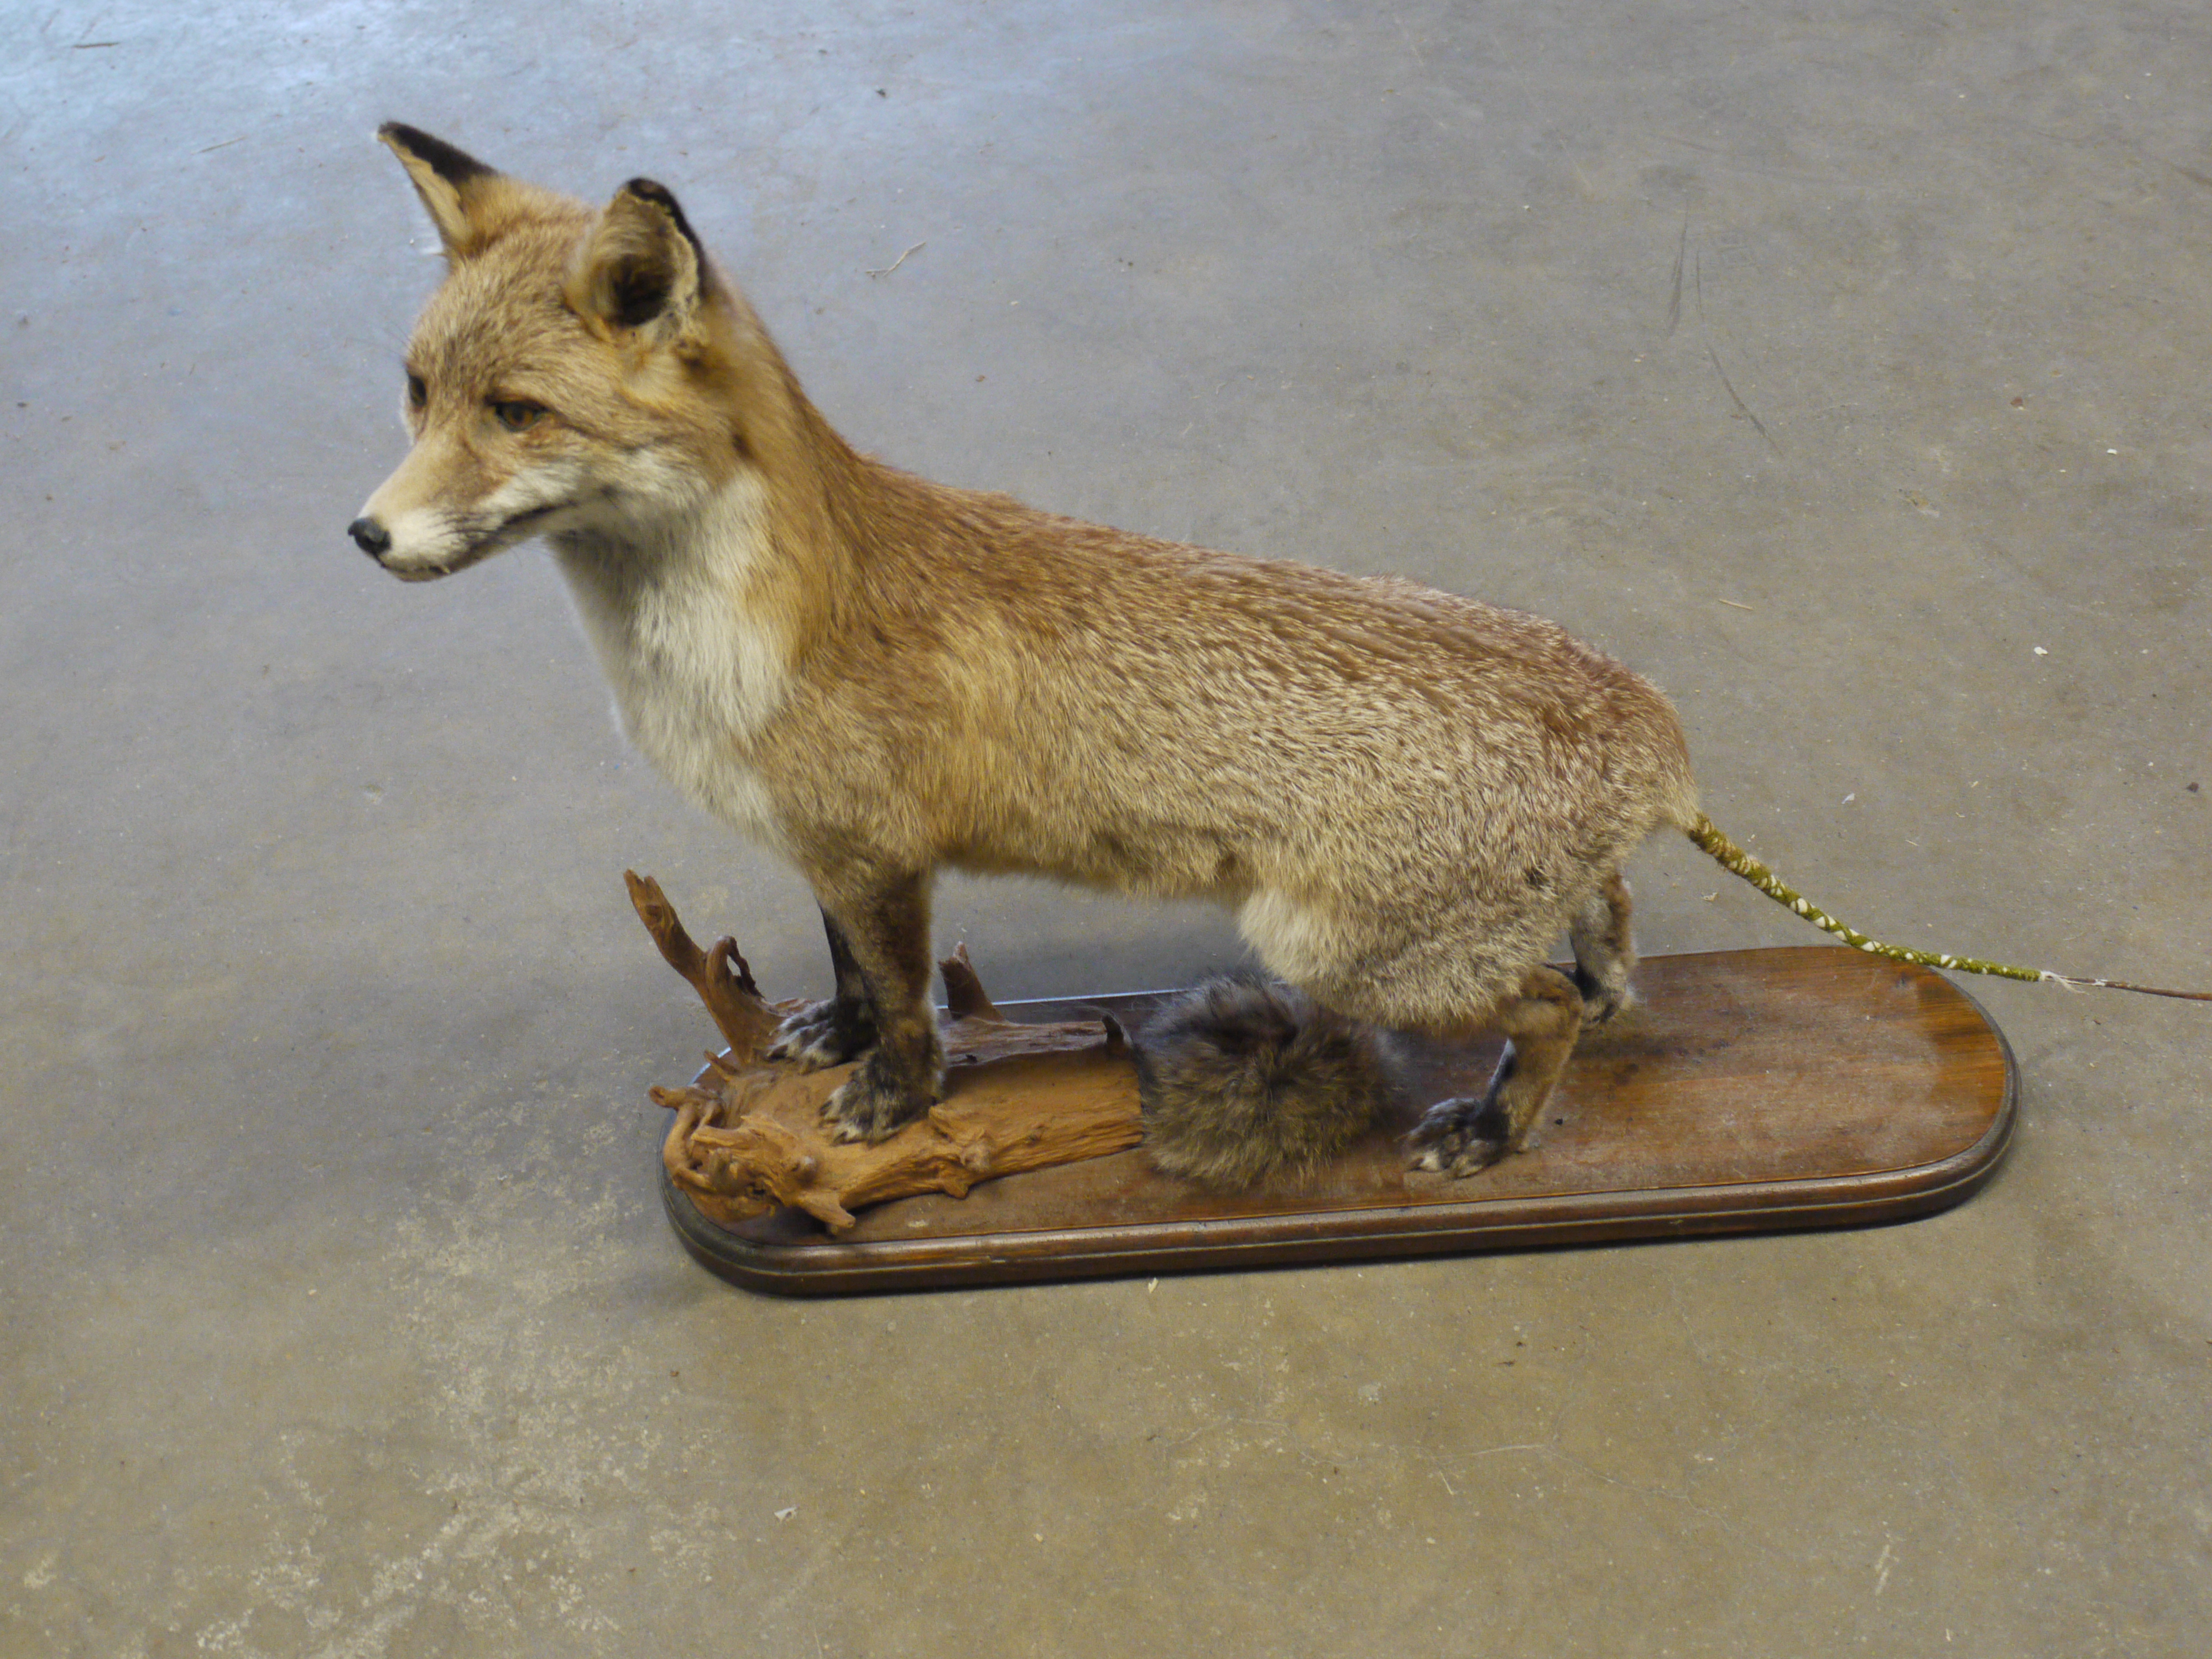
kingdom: Animalia
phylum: Chordata
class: Mammalia
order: Carnivora
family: Canidae
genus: Vulpes
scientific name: Vulpes vulpes
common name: Red fox
